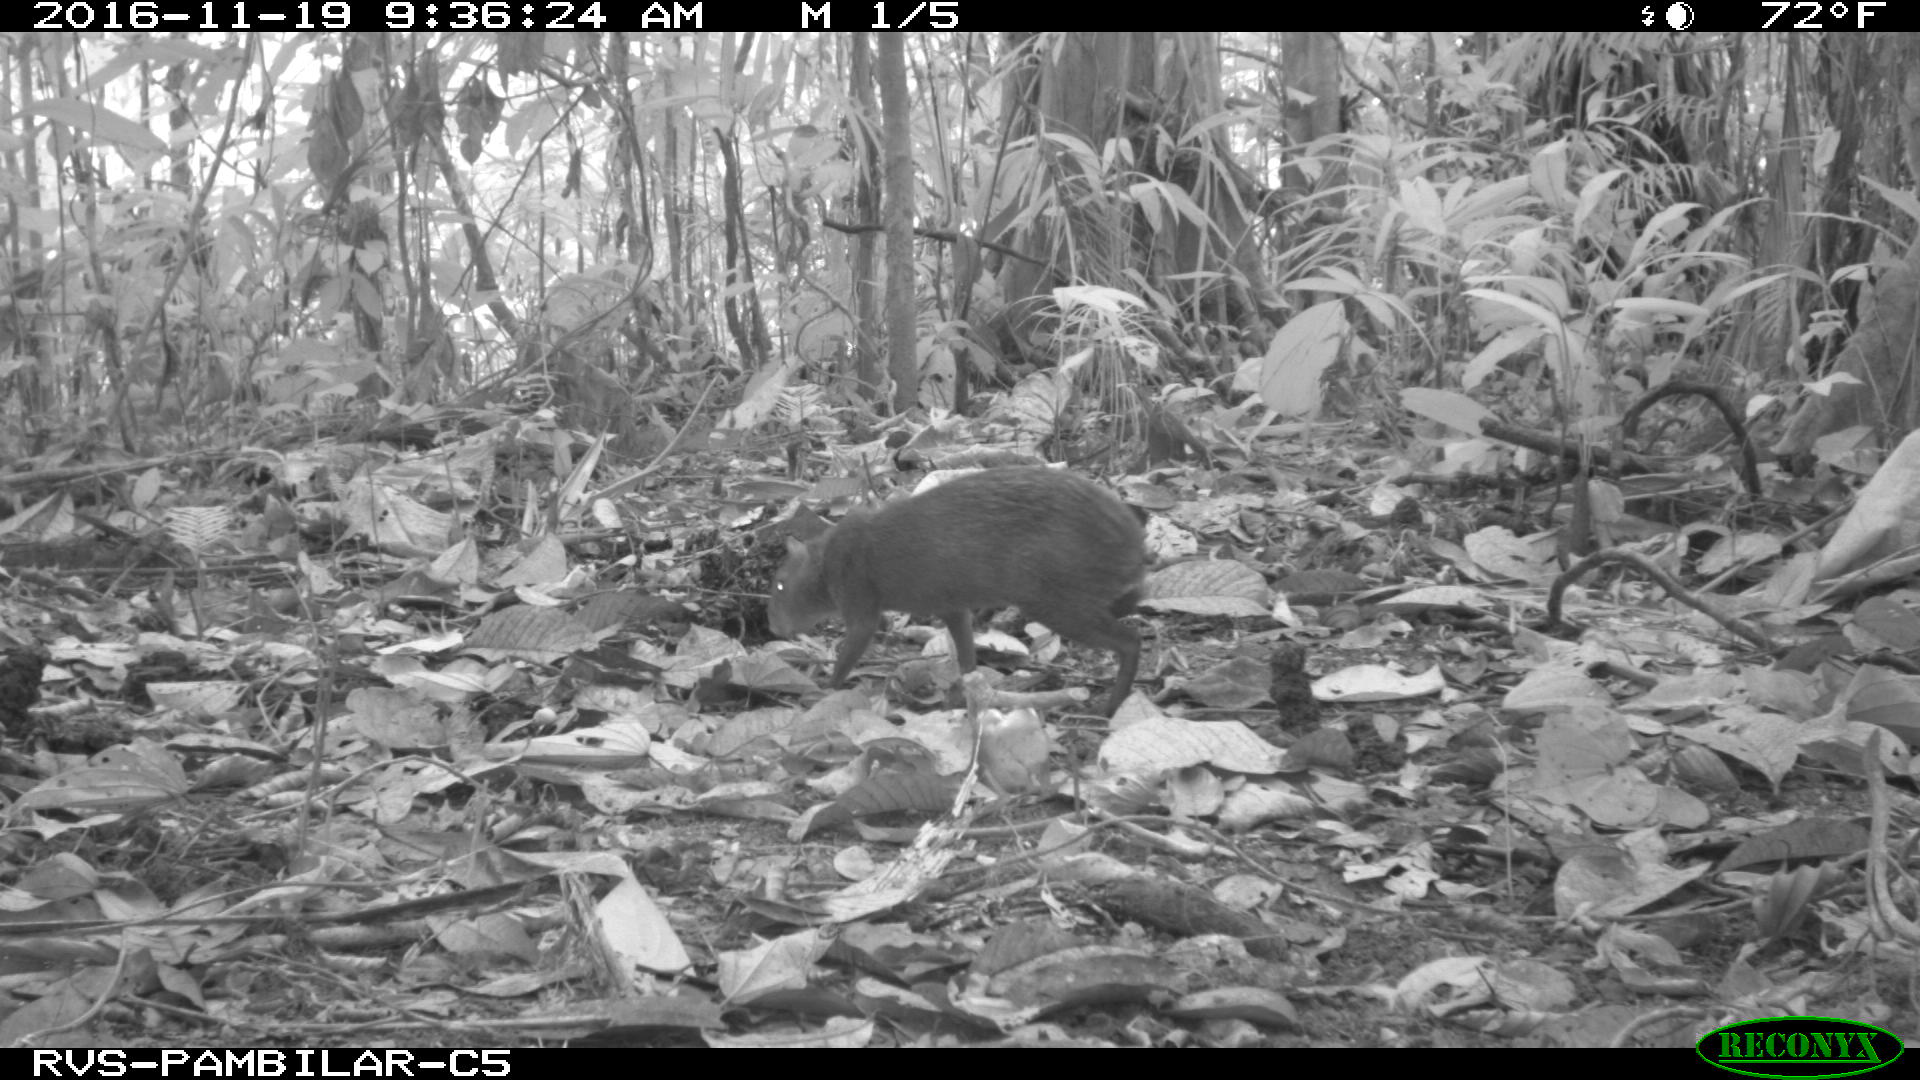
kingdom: Animalia
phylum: Chordata
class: Mammalia
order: Rodentia
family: Dasyproctidae
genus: Dasyprocta
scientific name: Dasyprocta punctata
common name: Central american agouti
